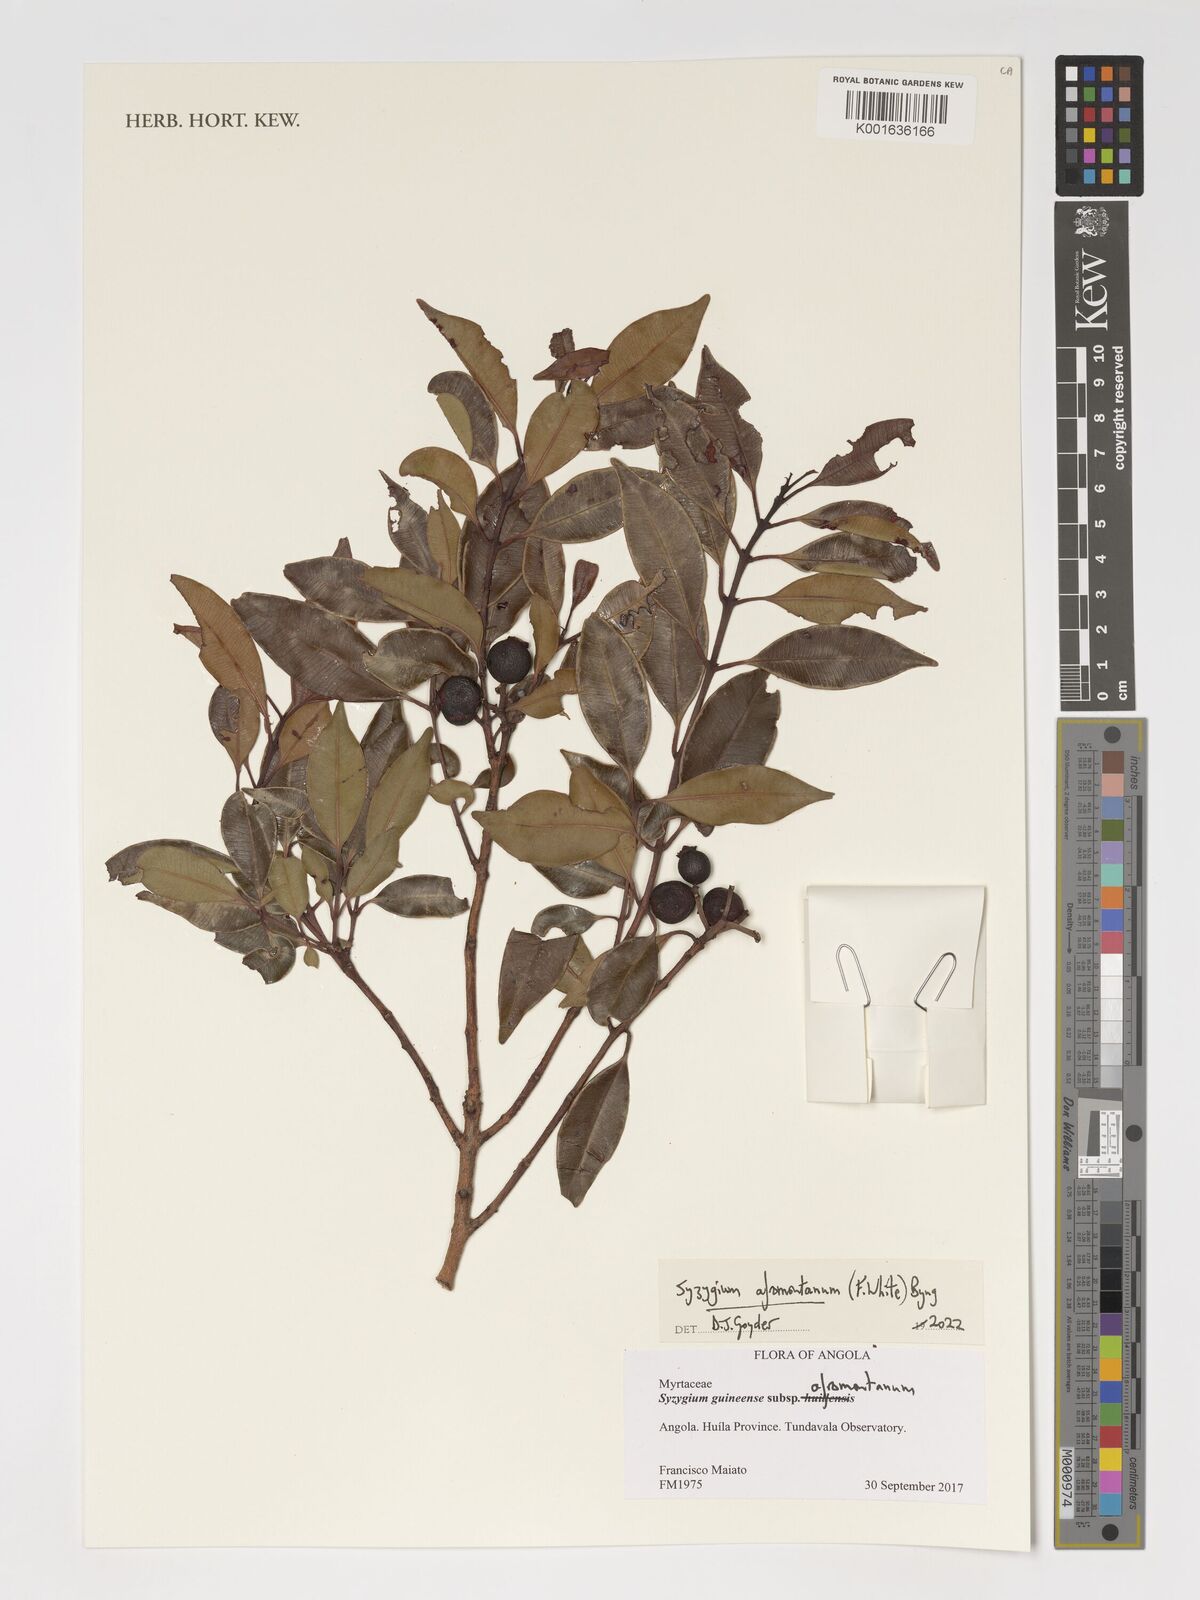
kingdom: Plantae
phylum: Tracheophyta
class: Magnoliopsida
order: Myrtales
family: Myrtaceae
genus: Syzygium
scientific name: Syzygium guineense
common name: Water-pear
